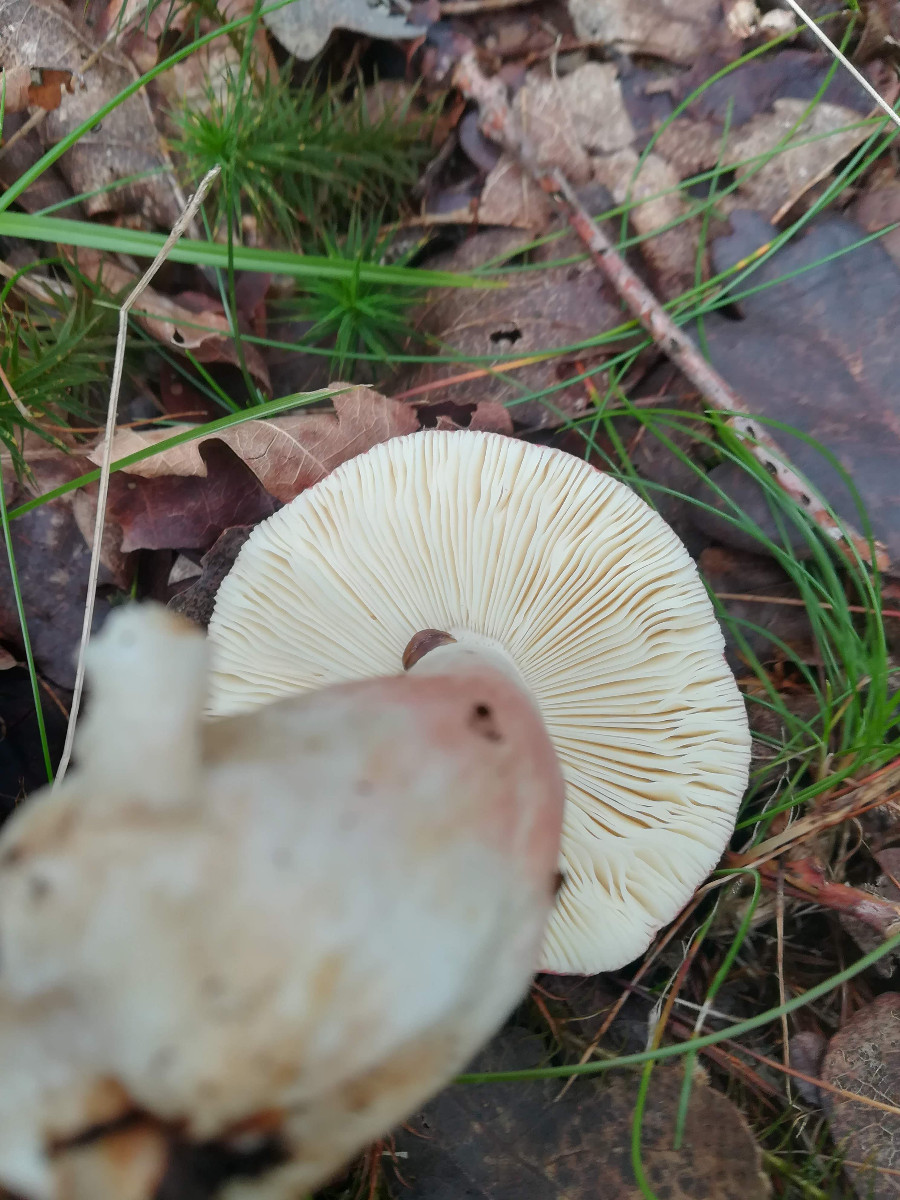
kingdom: Fungi
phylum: Basidiomycota
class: Agaricomycetes
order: Russulales
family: Russulaceae
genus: Russula
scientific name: Russula rosea
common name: fastkødet skørhat
